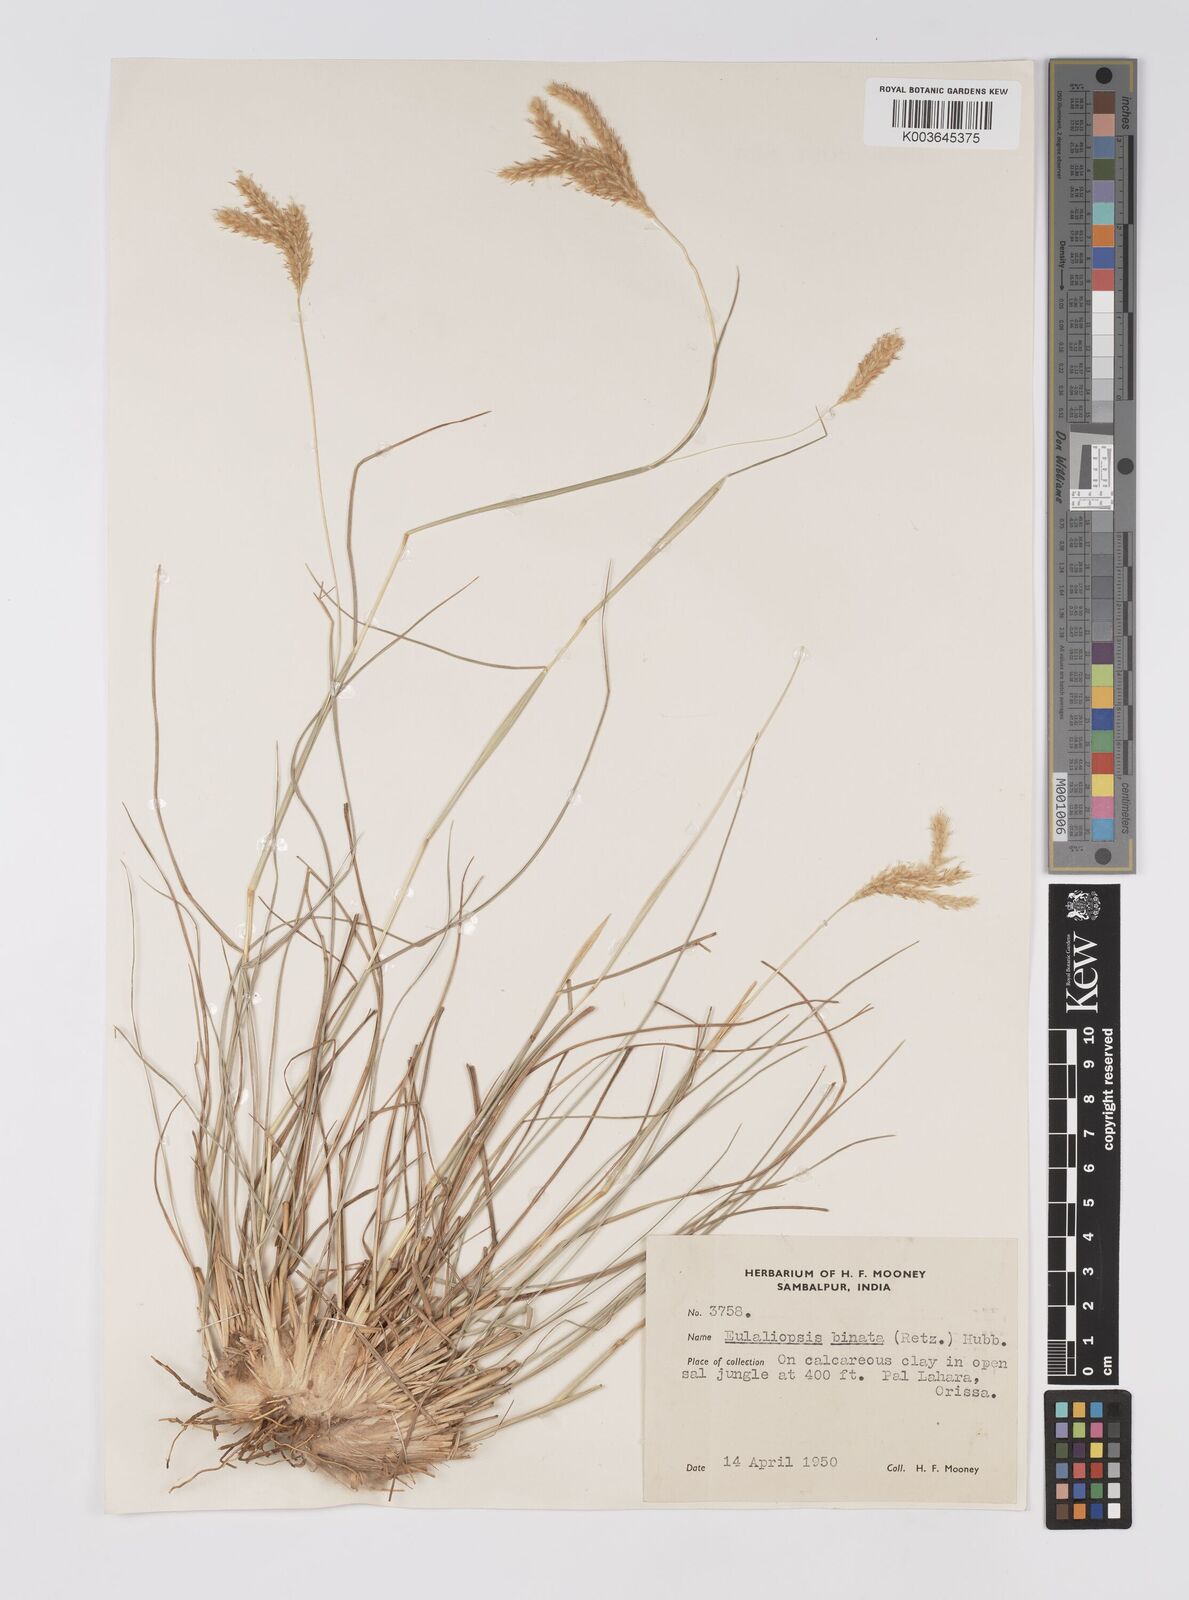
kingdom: Plantae
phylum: Tracheophyta
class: Liliopsida
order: Poales
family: Poaceae
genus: Eulaliopsis
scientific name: Eulaliopsis binata
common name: Baib grass
